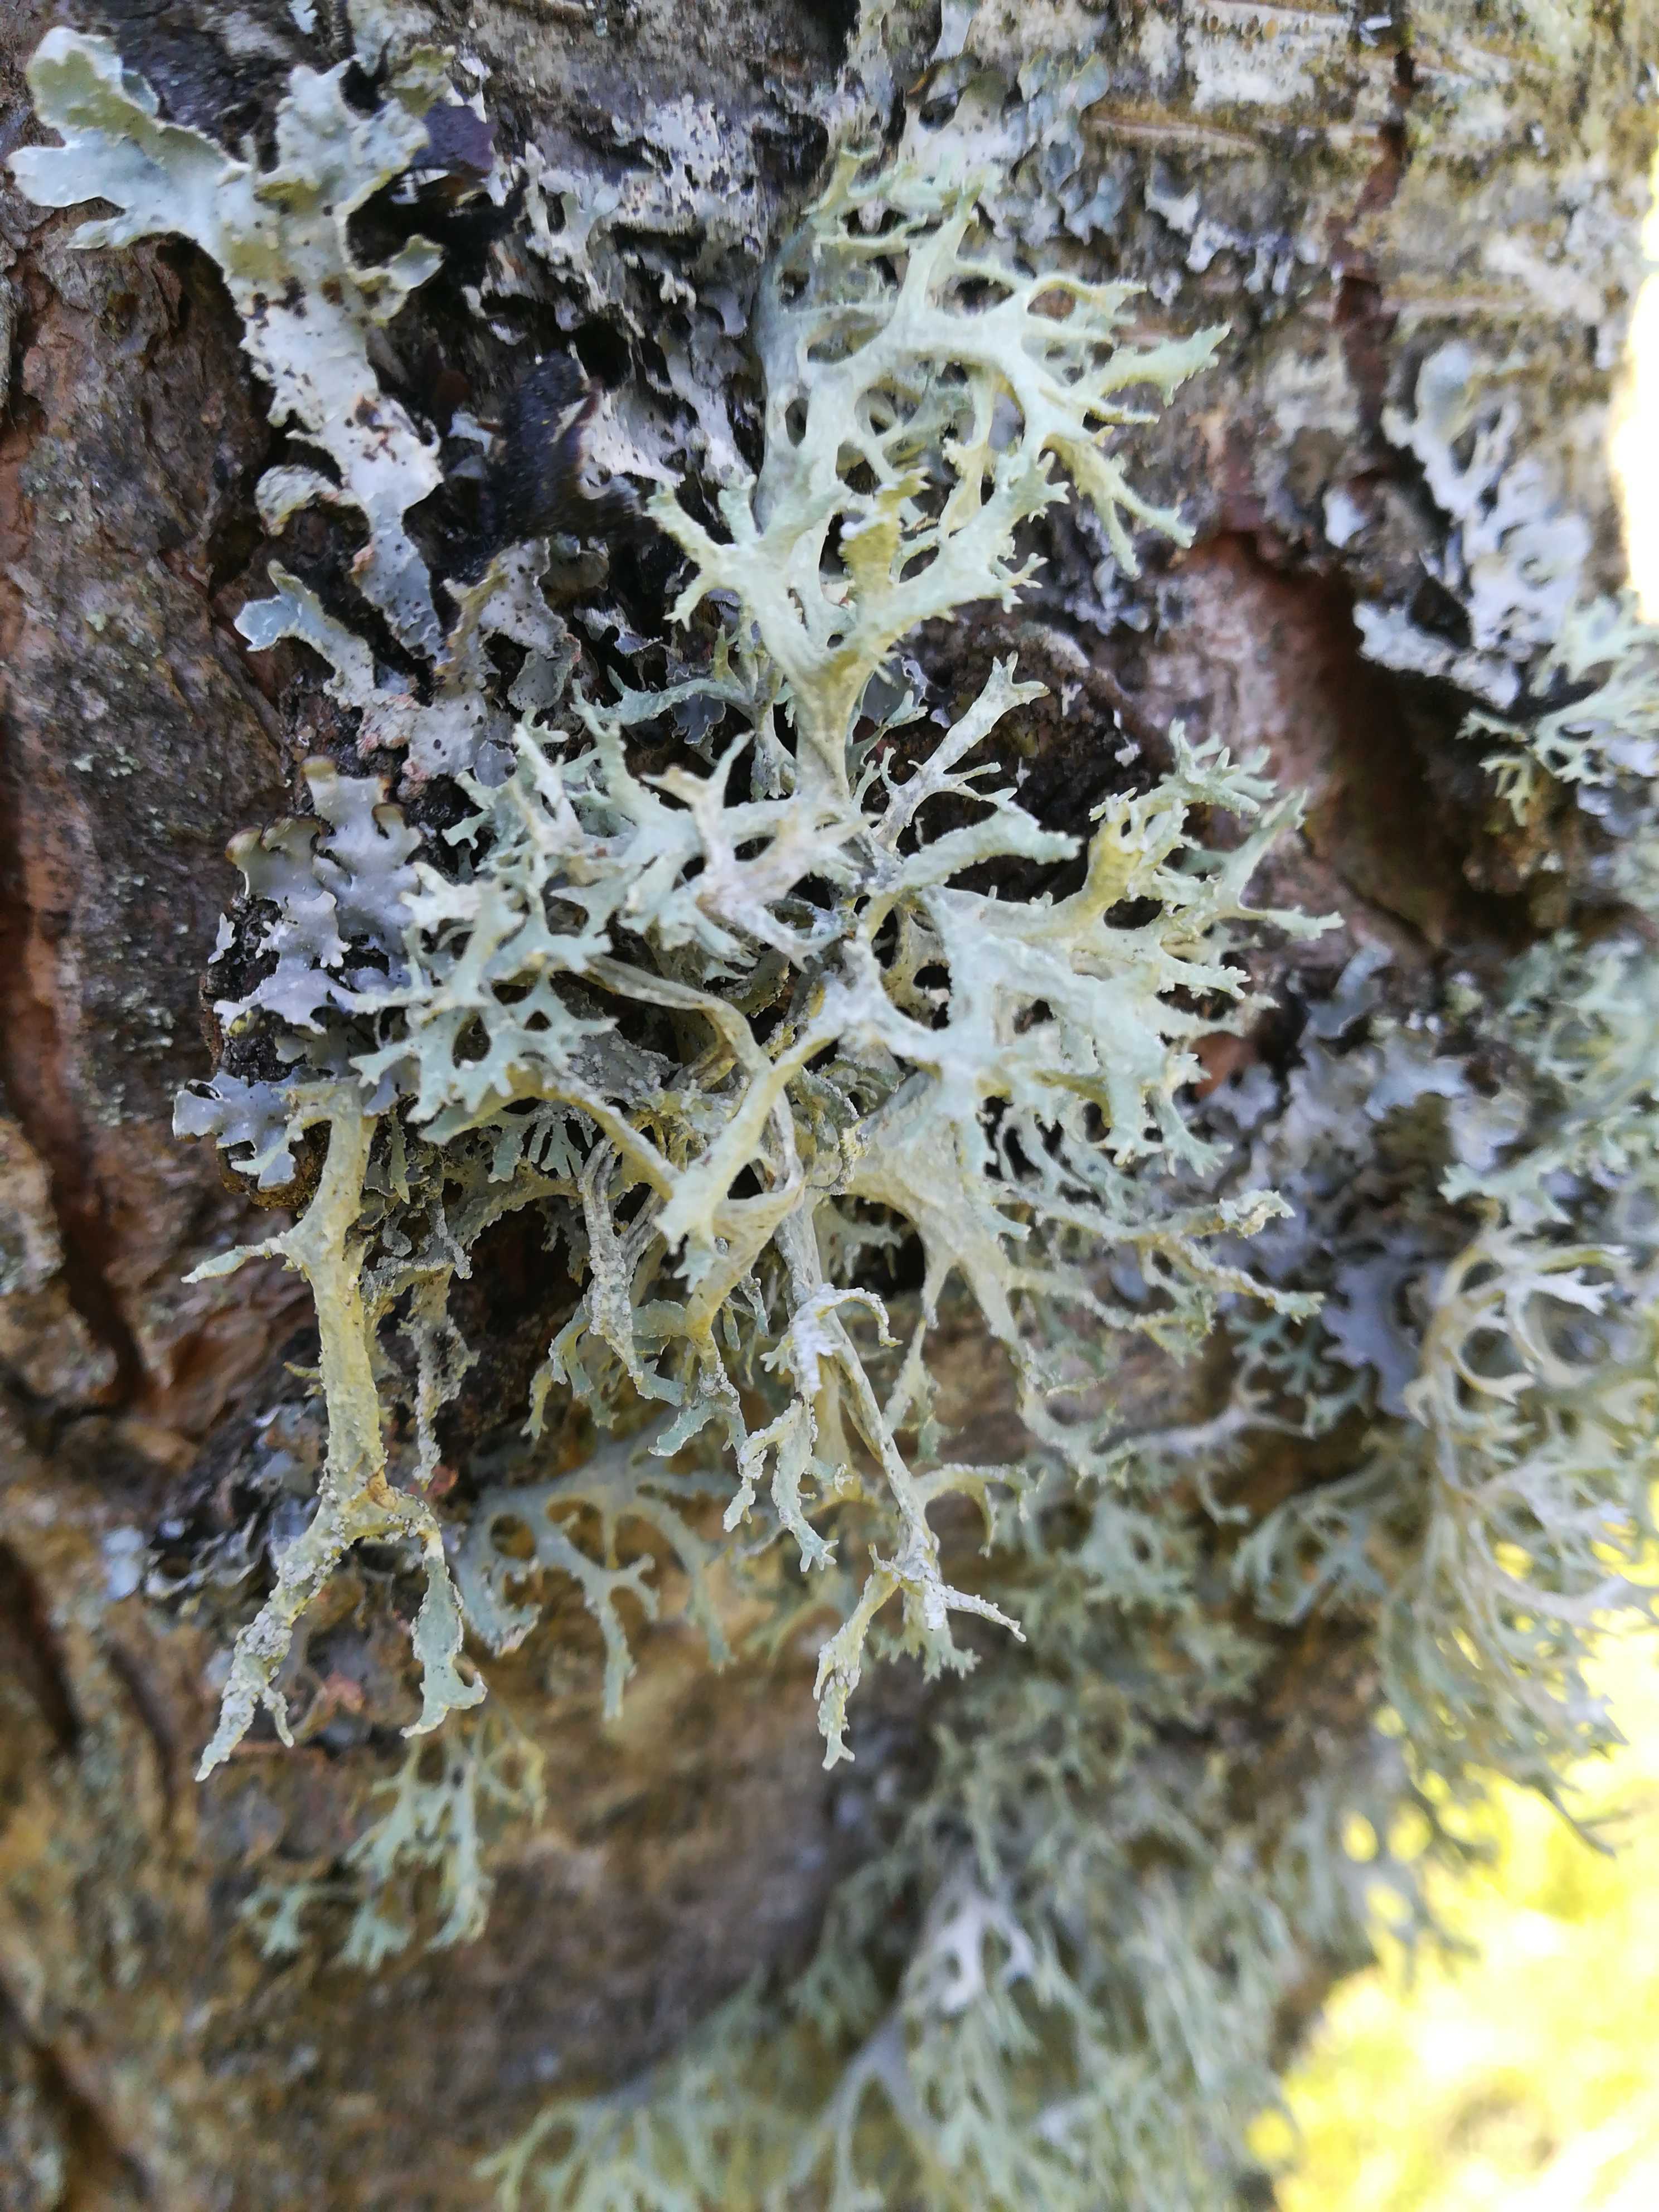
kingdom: Fungi
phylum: Ascomycota
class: Lecanoromycetes
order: Lecanorales
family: Parmeliaceae
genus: Evernia
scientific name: Evernia prunastri
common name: almindelig slåenlav
